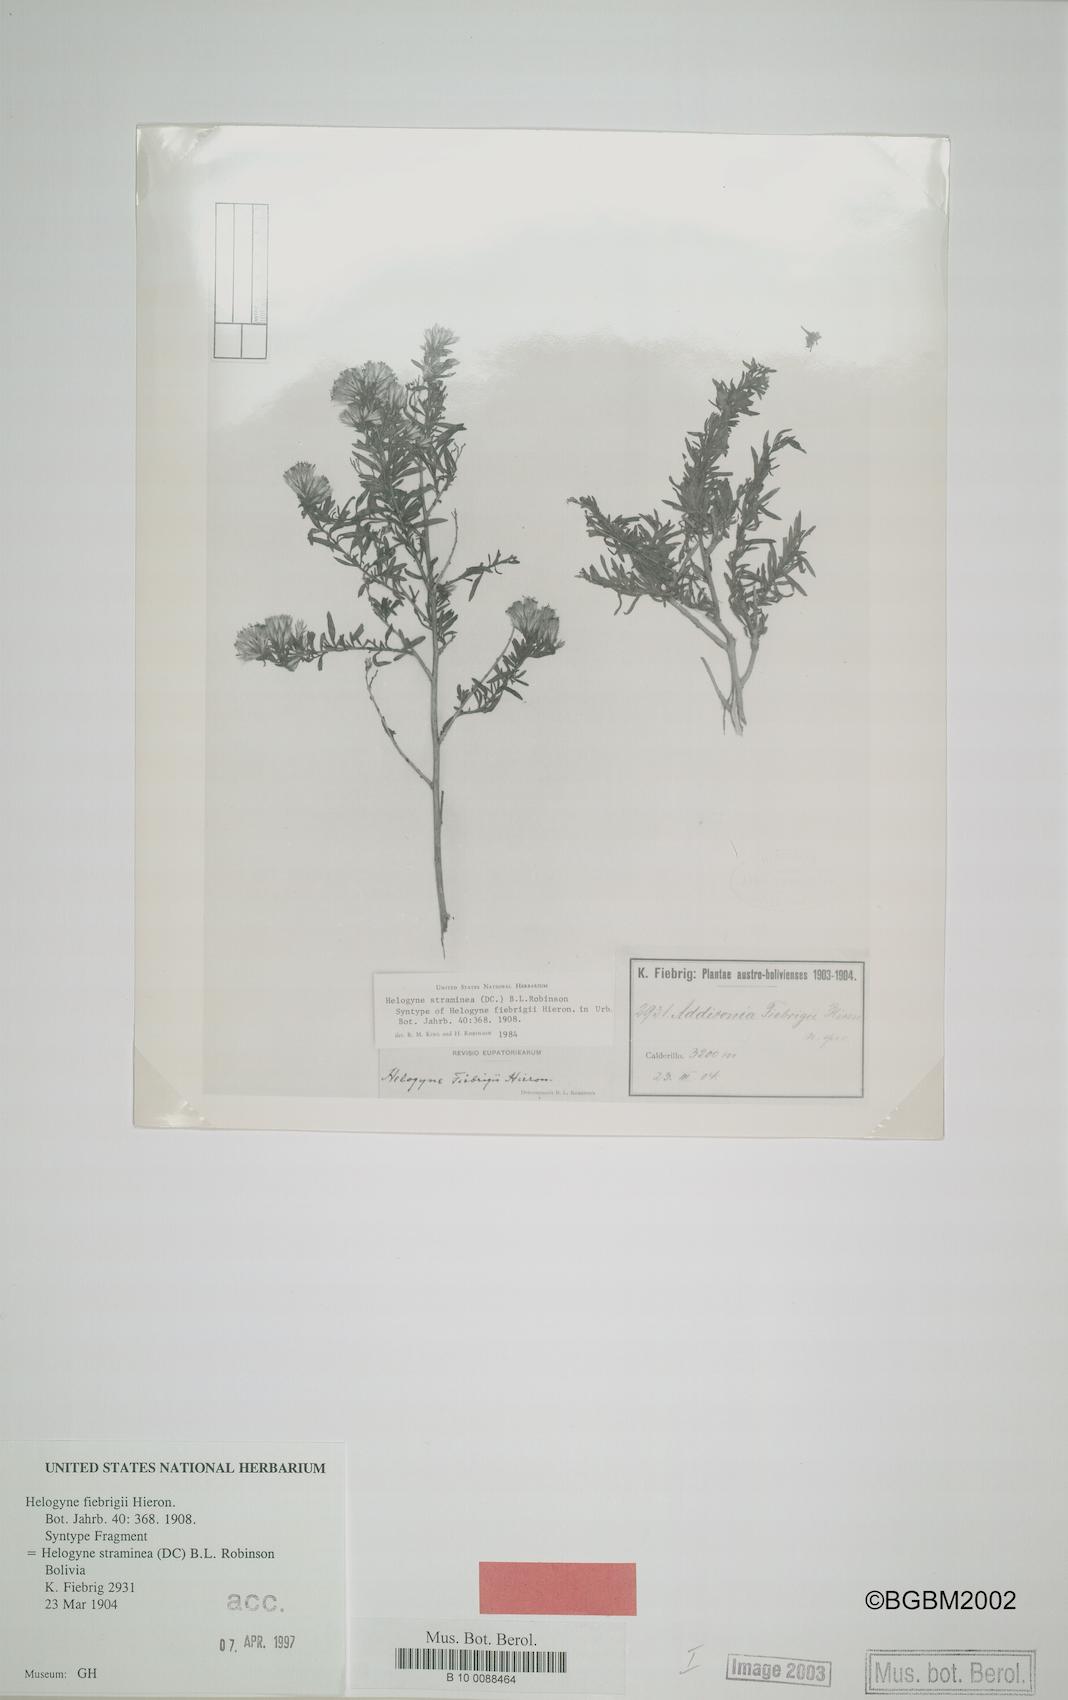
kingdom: Plantae
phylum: Tracheophyta
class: Magnoliopsida
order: Asterales
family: Asteraceae
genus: Helogyne
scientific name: Helogyne straminea
